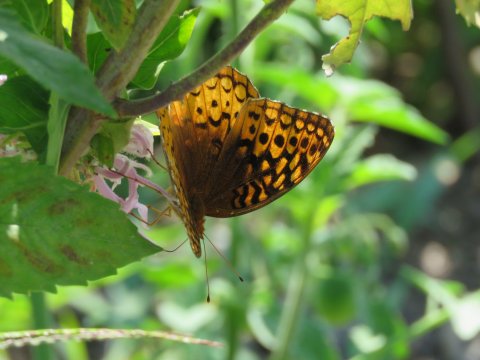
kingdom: Animalia
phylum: Arthropoda
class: Insecta
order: Lepidoptera
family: Nymphalidae
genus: Speyeria
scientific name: Speyeria cybele
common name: Great Spangled Fritillary
